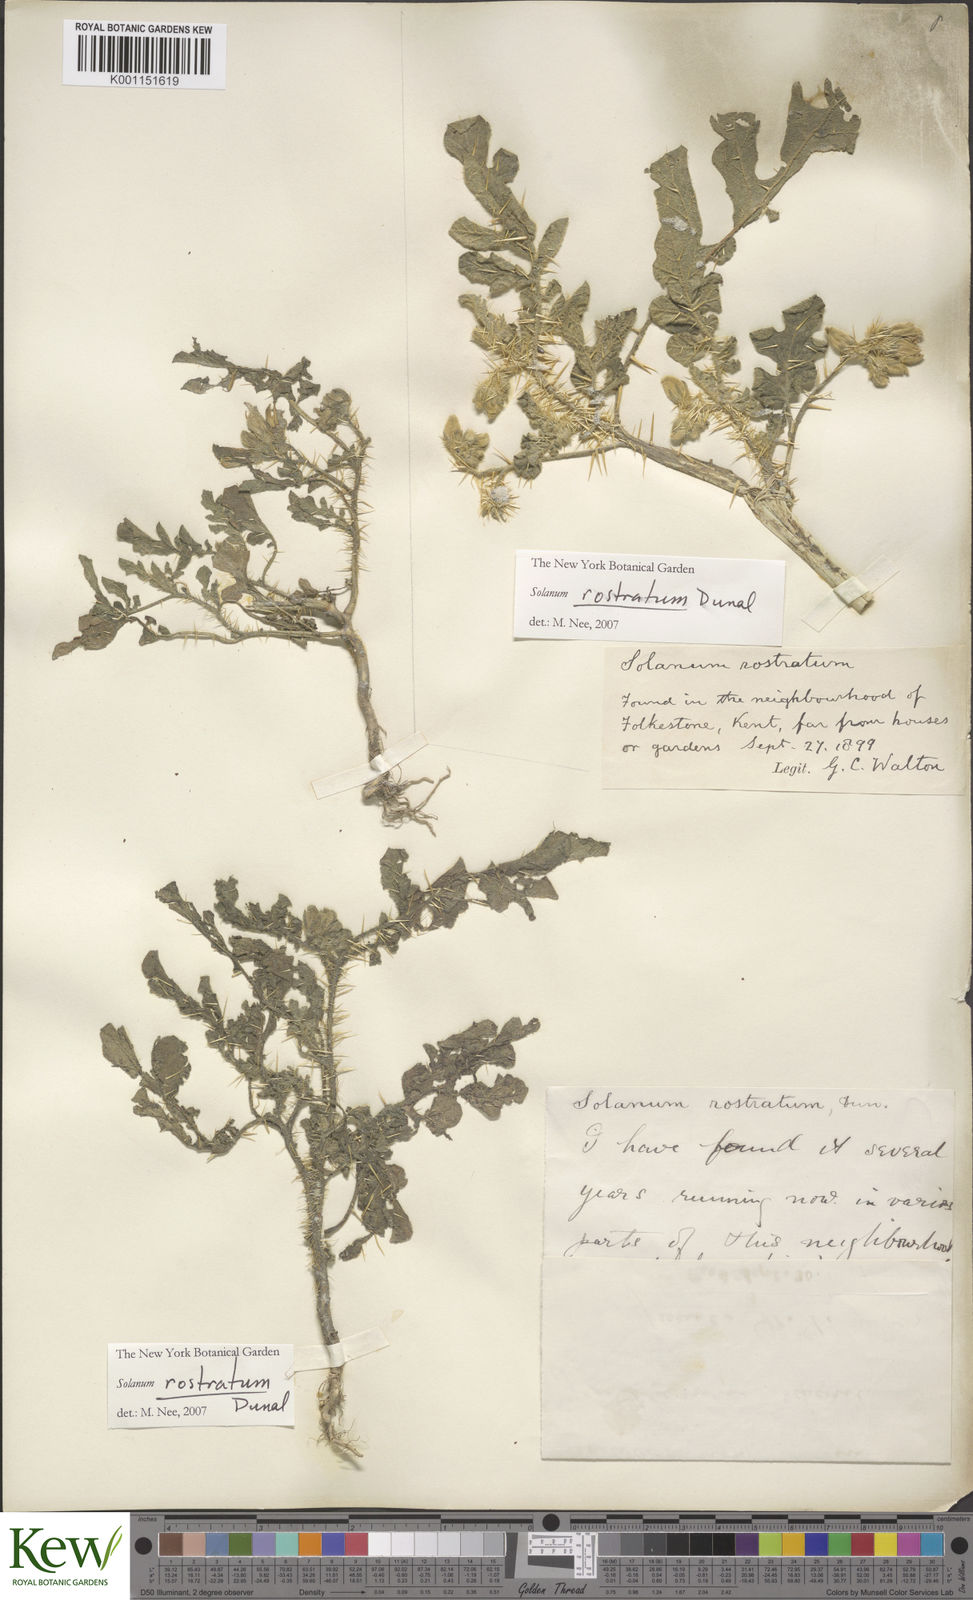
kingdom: Plantae
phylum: Tracheophyta
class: Magnoliopsida
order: Solanales
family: Solanaceae
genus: Solanum
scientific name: Solanum angustifolium
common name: Buffalobur nightshade
